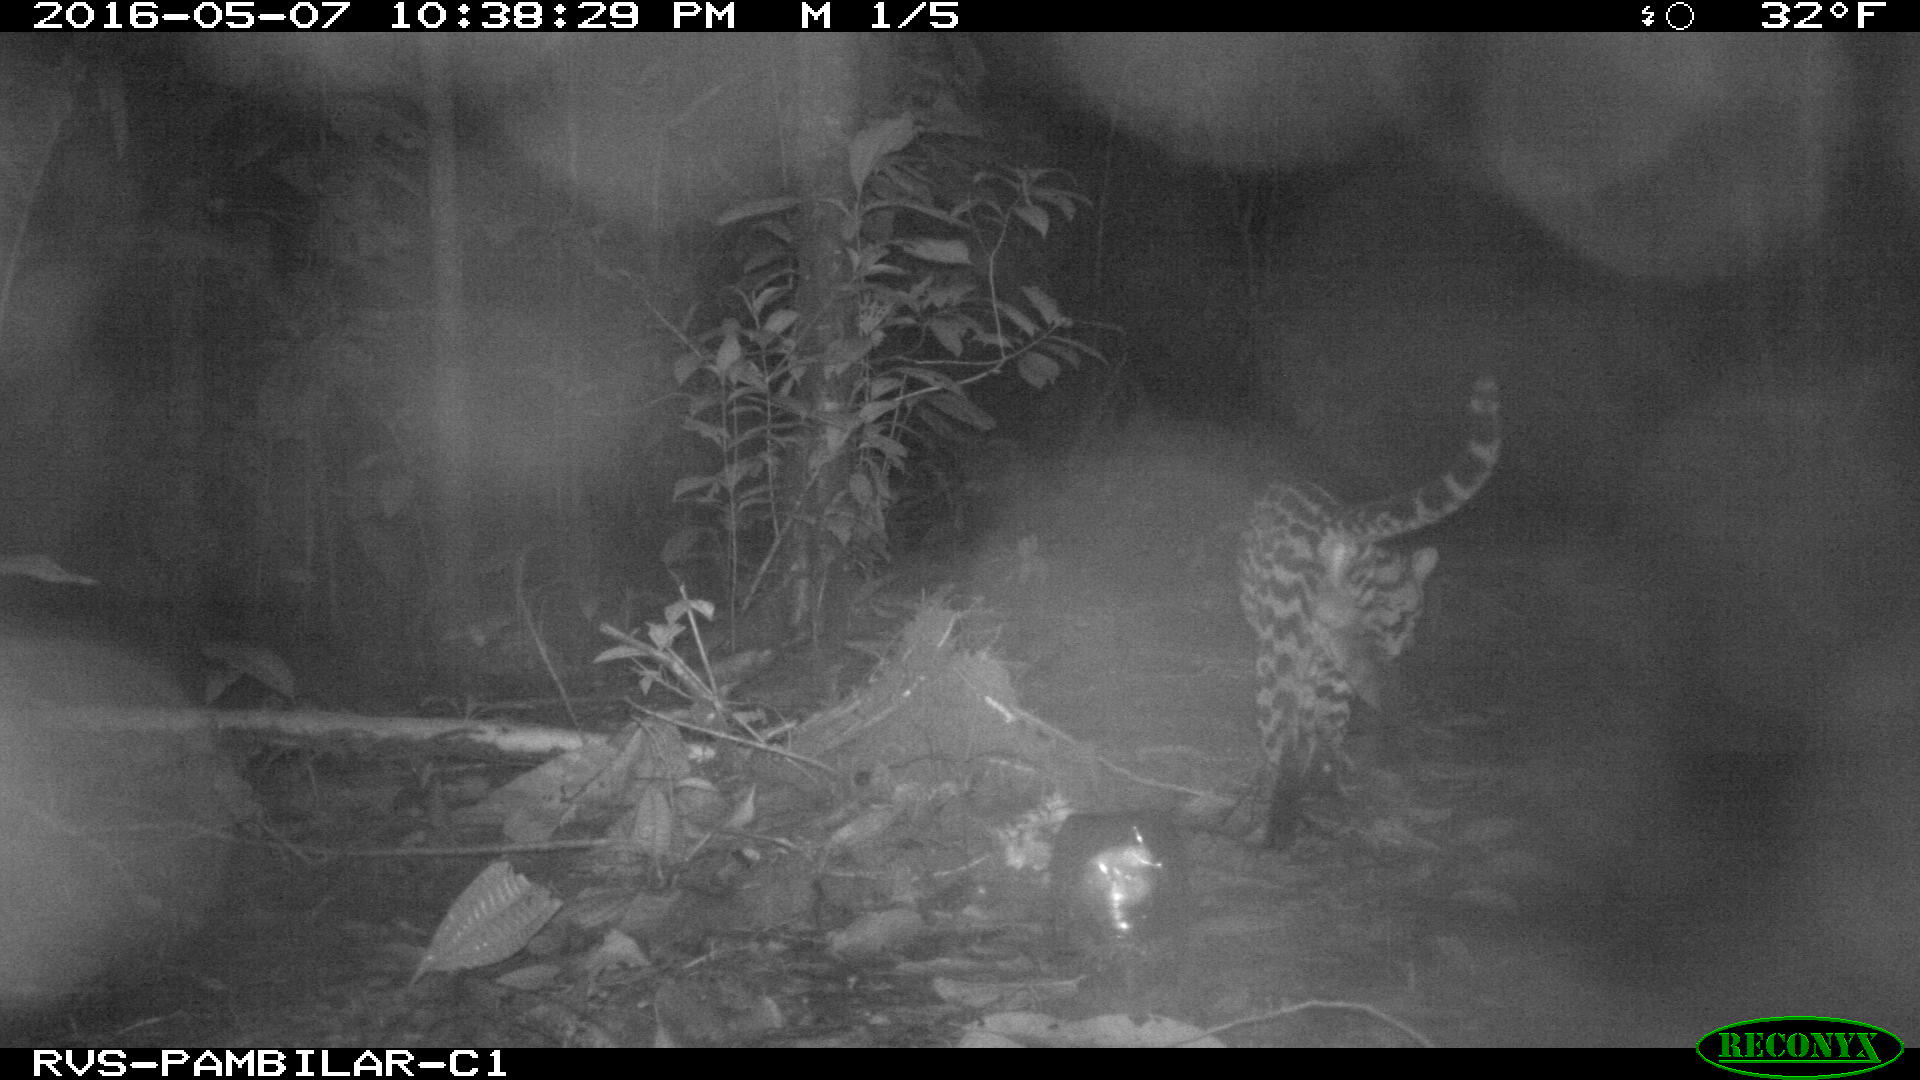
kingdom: Animalia
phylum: Chordata
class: Mammalia
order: Carnivora
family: Felidae
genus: Leopardus
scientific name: Leopardus pardalis
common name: Ocelot
